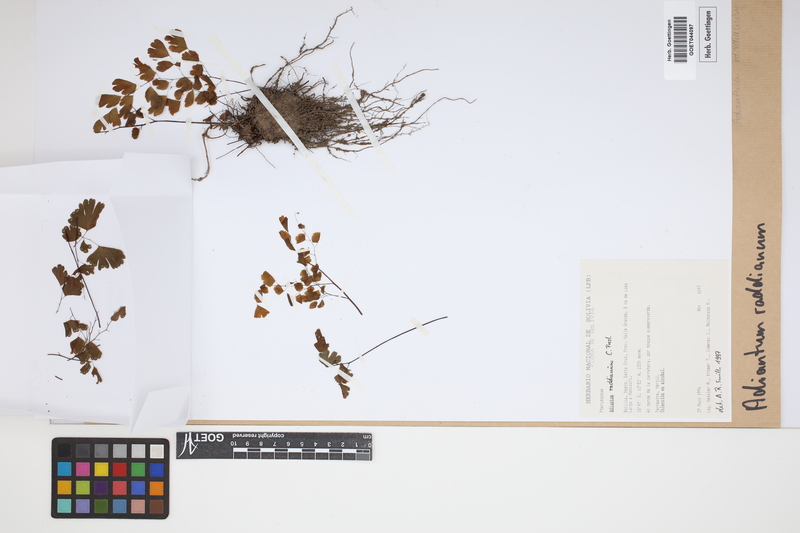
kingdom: Plantae
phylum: Tracheophyta
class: Polypodiopsida
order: Polypodiales
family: Pteridaceae
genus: Adiantum
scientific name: Adiantum raddianum
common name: Delta maidenhair fern
